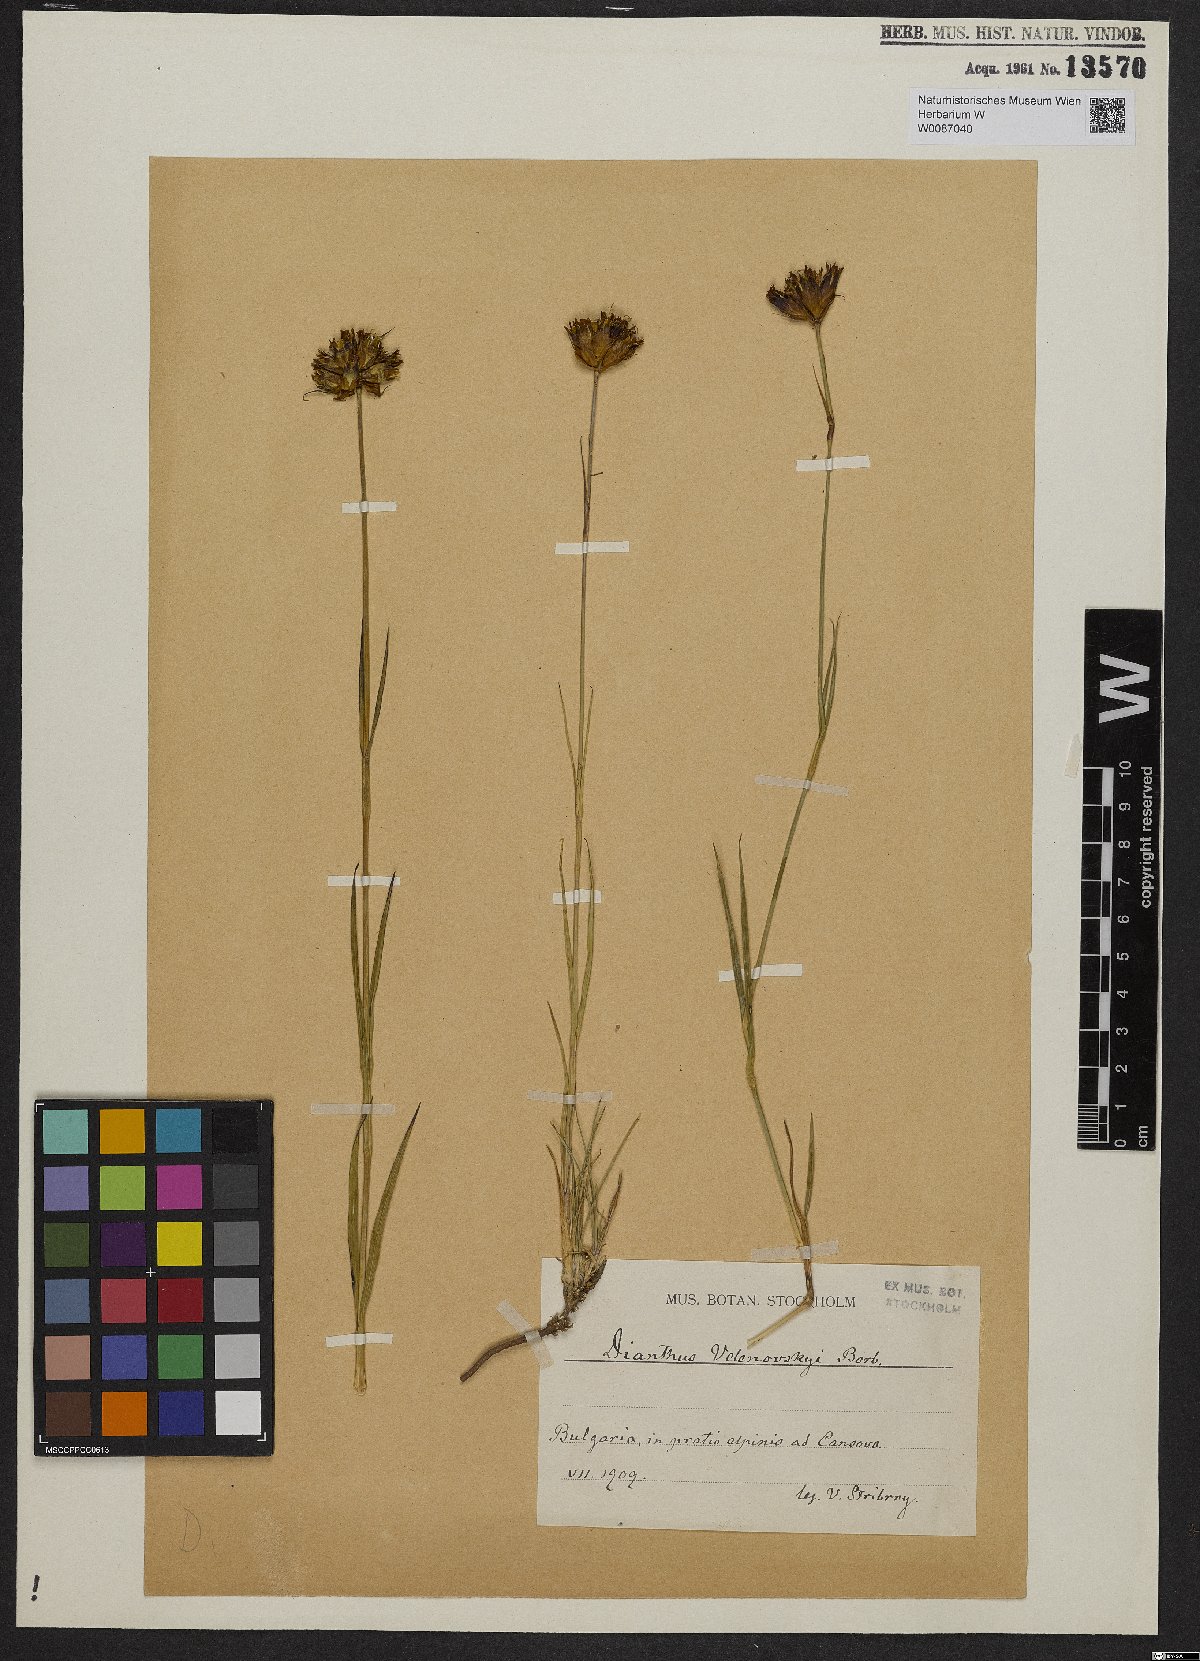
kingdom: Plantae
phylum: Tracheophyta
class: Magnoliopsida
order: Caryophyllales
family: Caryophyllaceae
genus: Dianthus
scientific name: Dianthus pancicii
